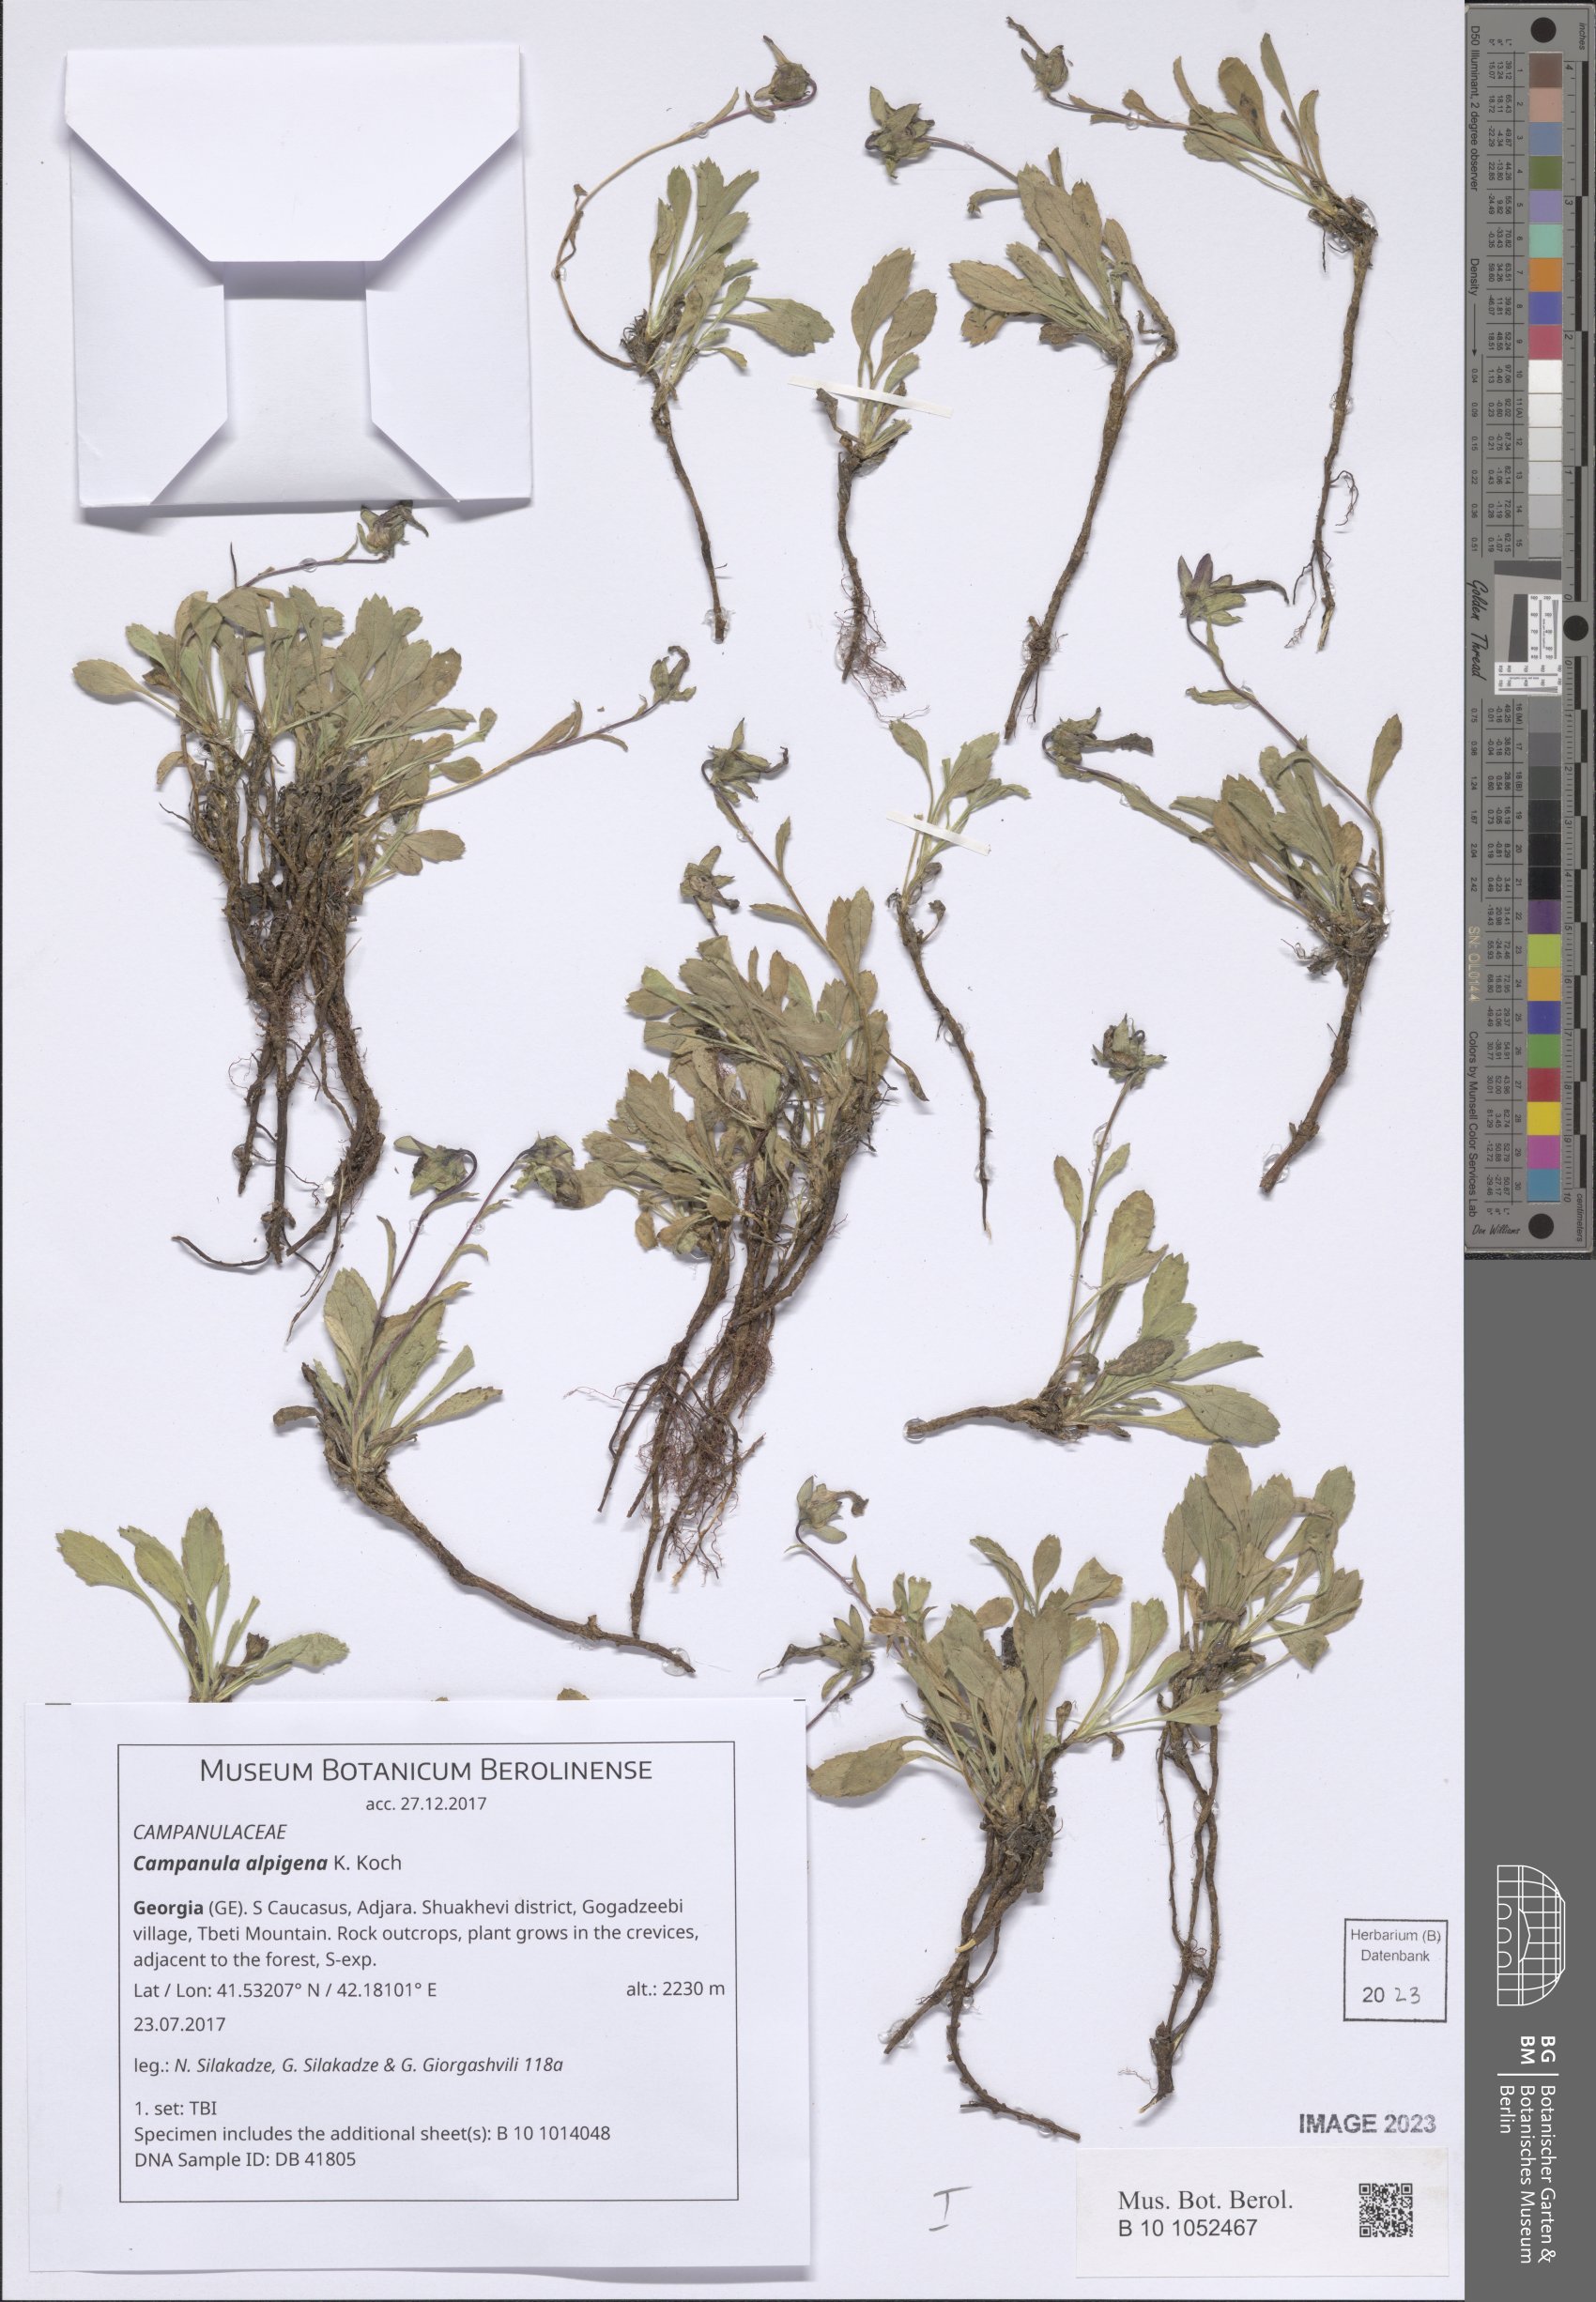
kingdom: Plantae
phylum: Tracheophyta
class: Magnoliopsida
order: Asterales
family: Campanulaceae
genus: Campanula
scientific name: Campanula saxifraga
